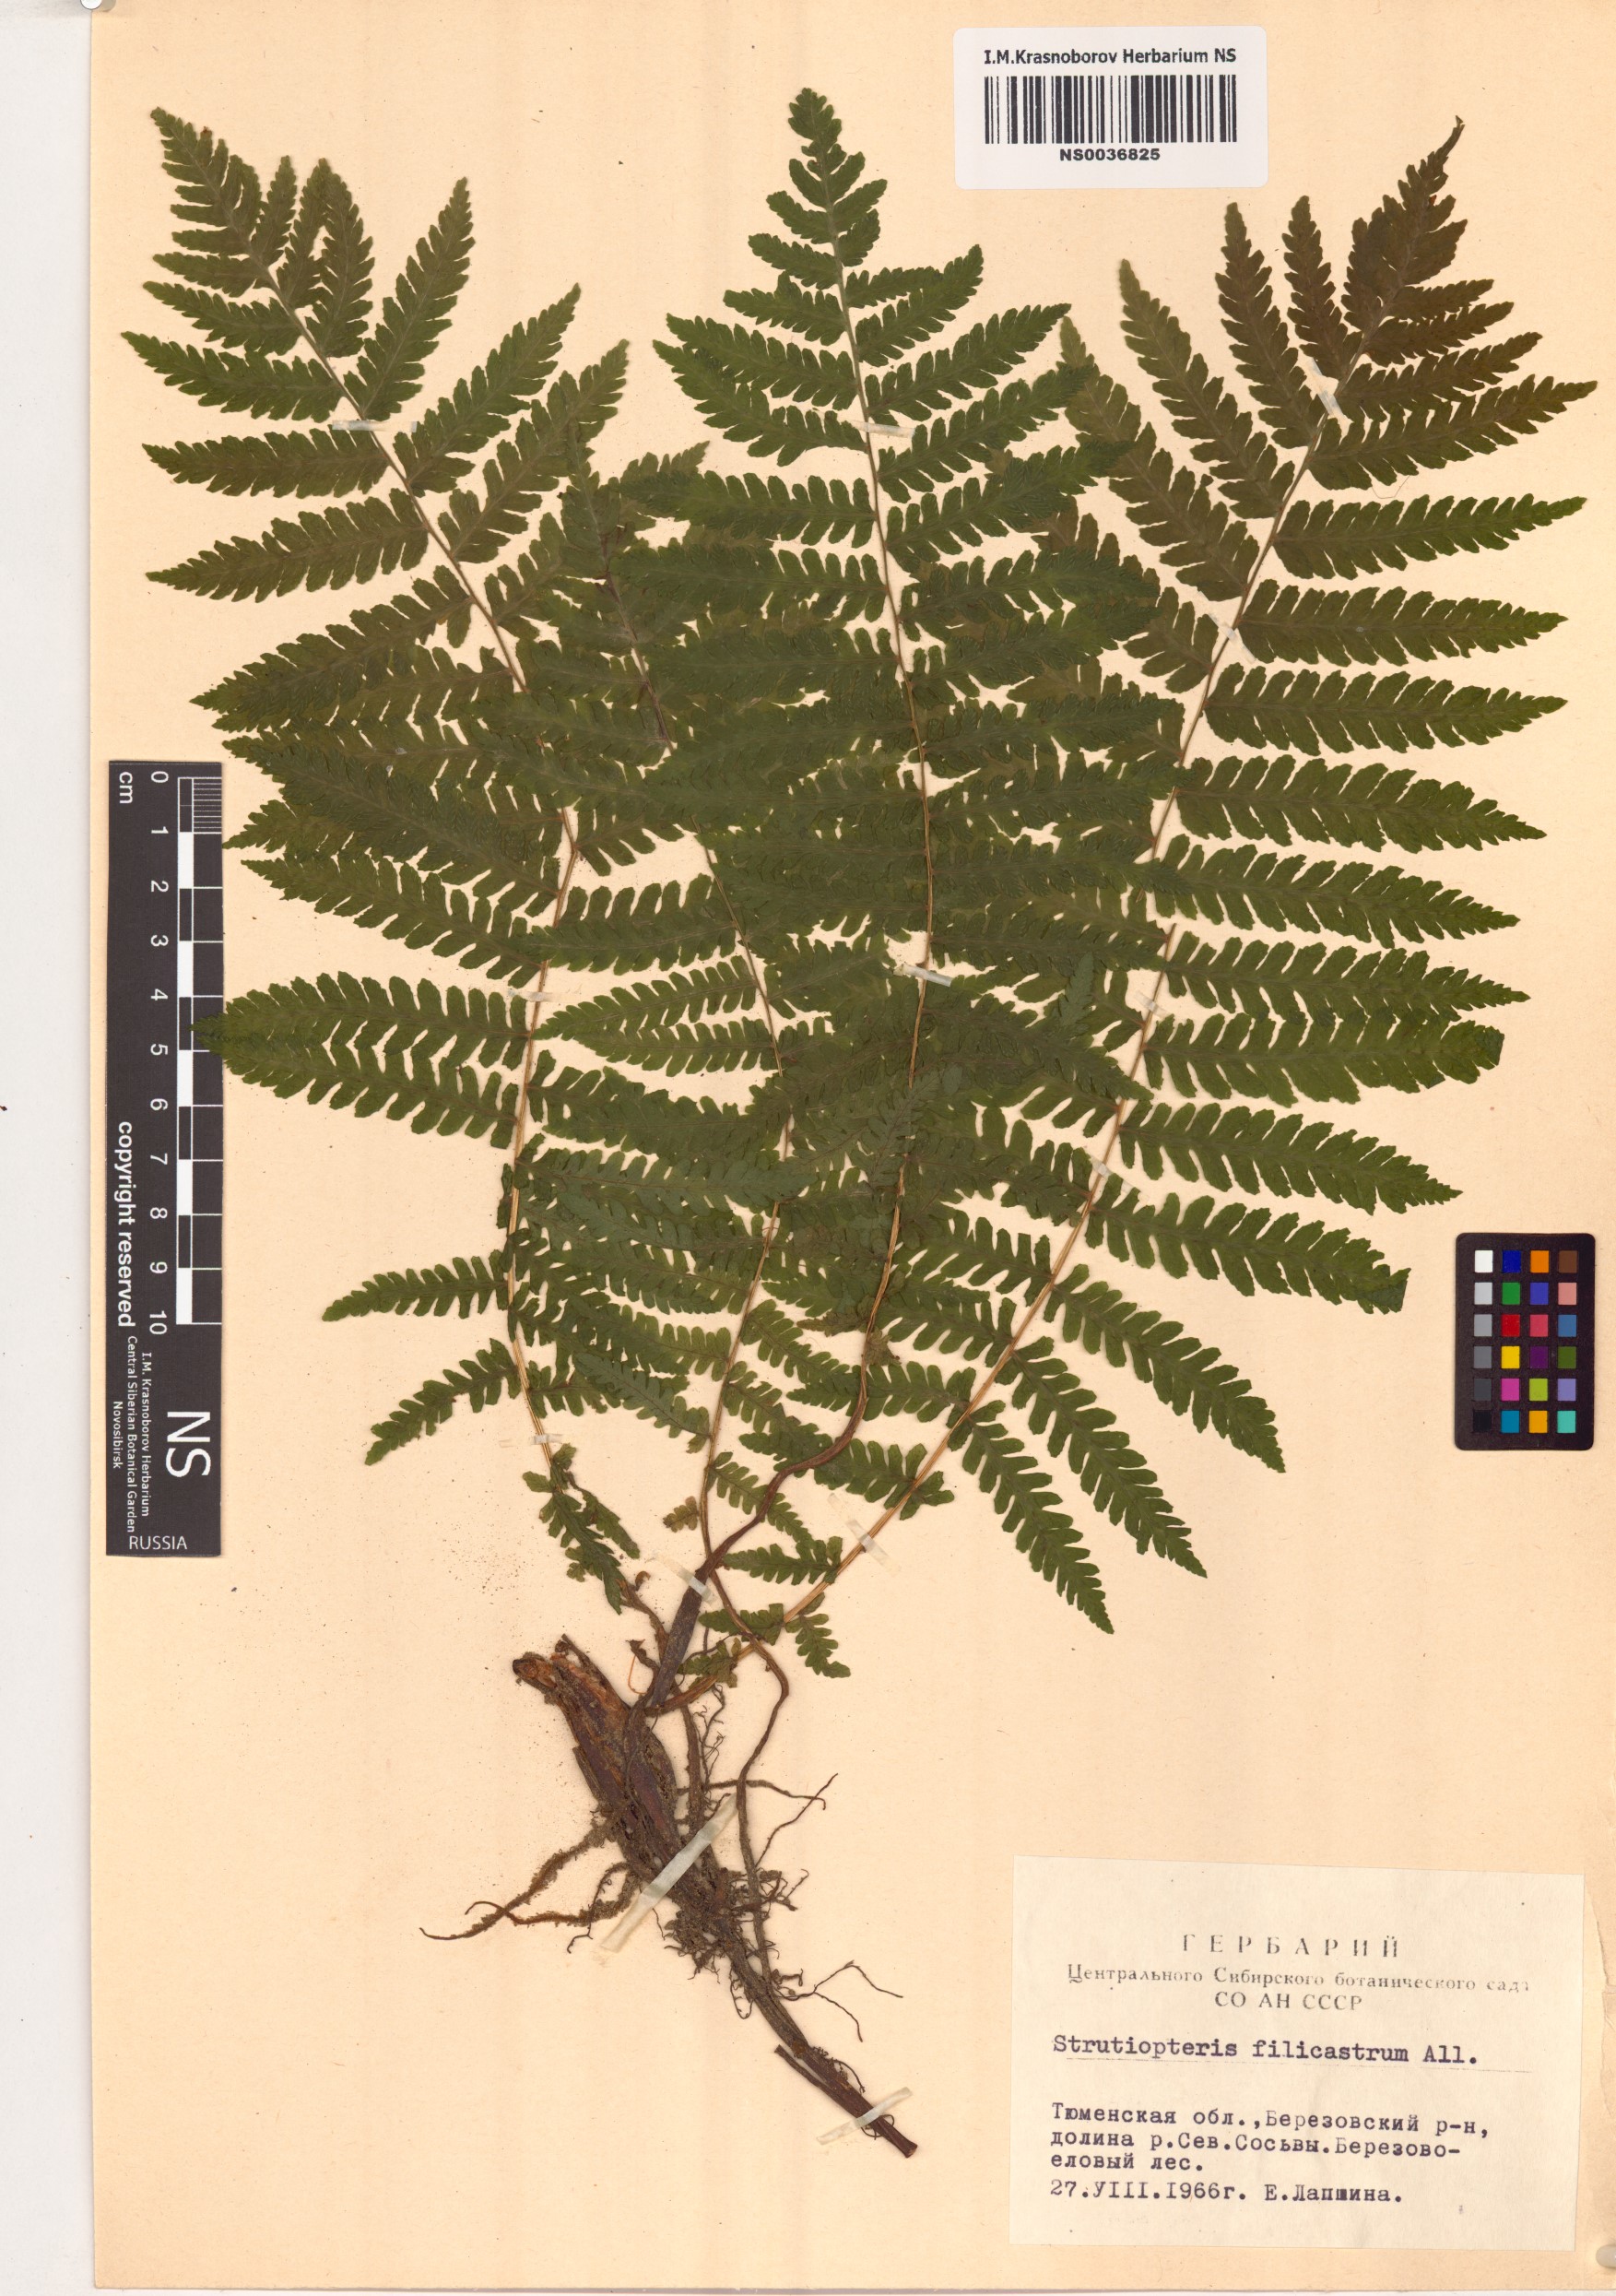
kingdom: Plantae
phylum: Tracheophyta
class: Polypodiopsida
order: Polypodiales
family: Onocleaceae
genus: Matteuccia
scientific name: Matteuccia struthiopteris
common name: Ostrich fern
